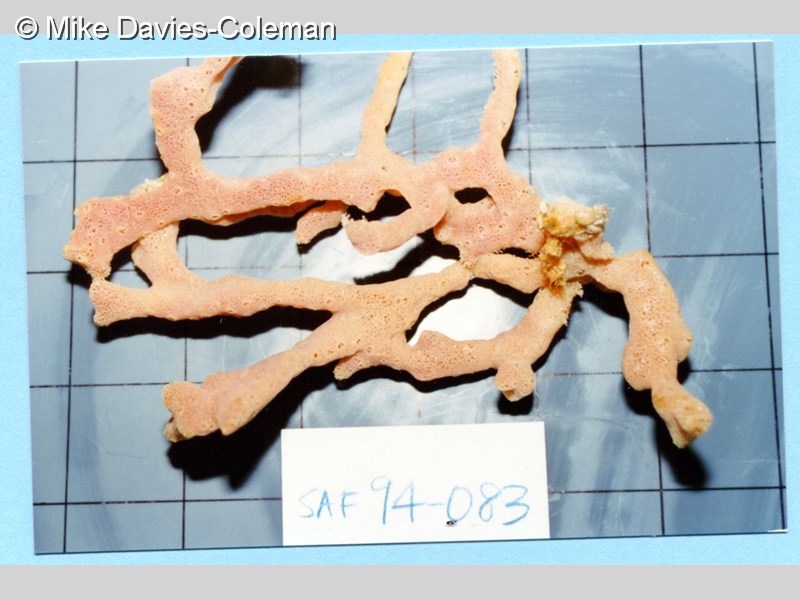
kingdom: Animalia
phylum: Porifera
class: Demospongiae
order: Haplosclerida
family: Callyspongiidae
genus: Callyspongia
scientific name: Callyspongia
